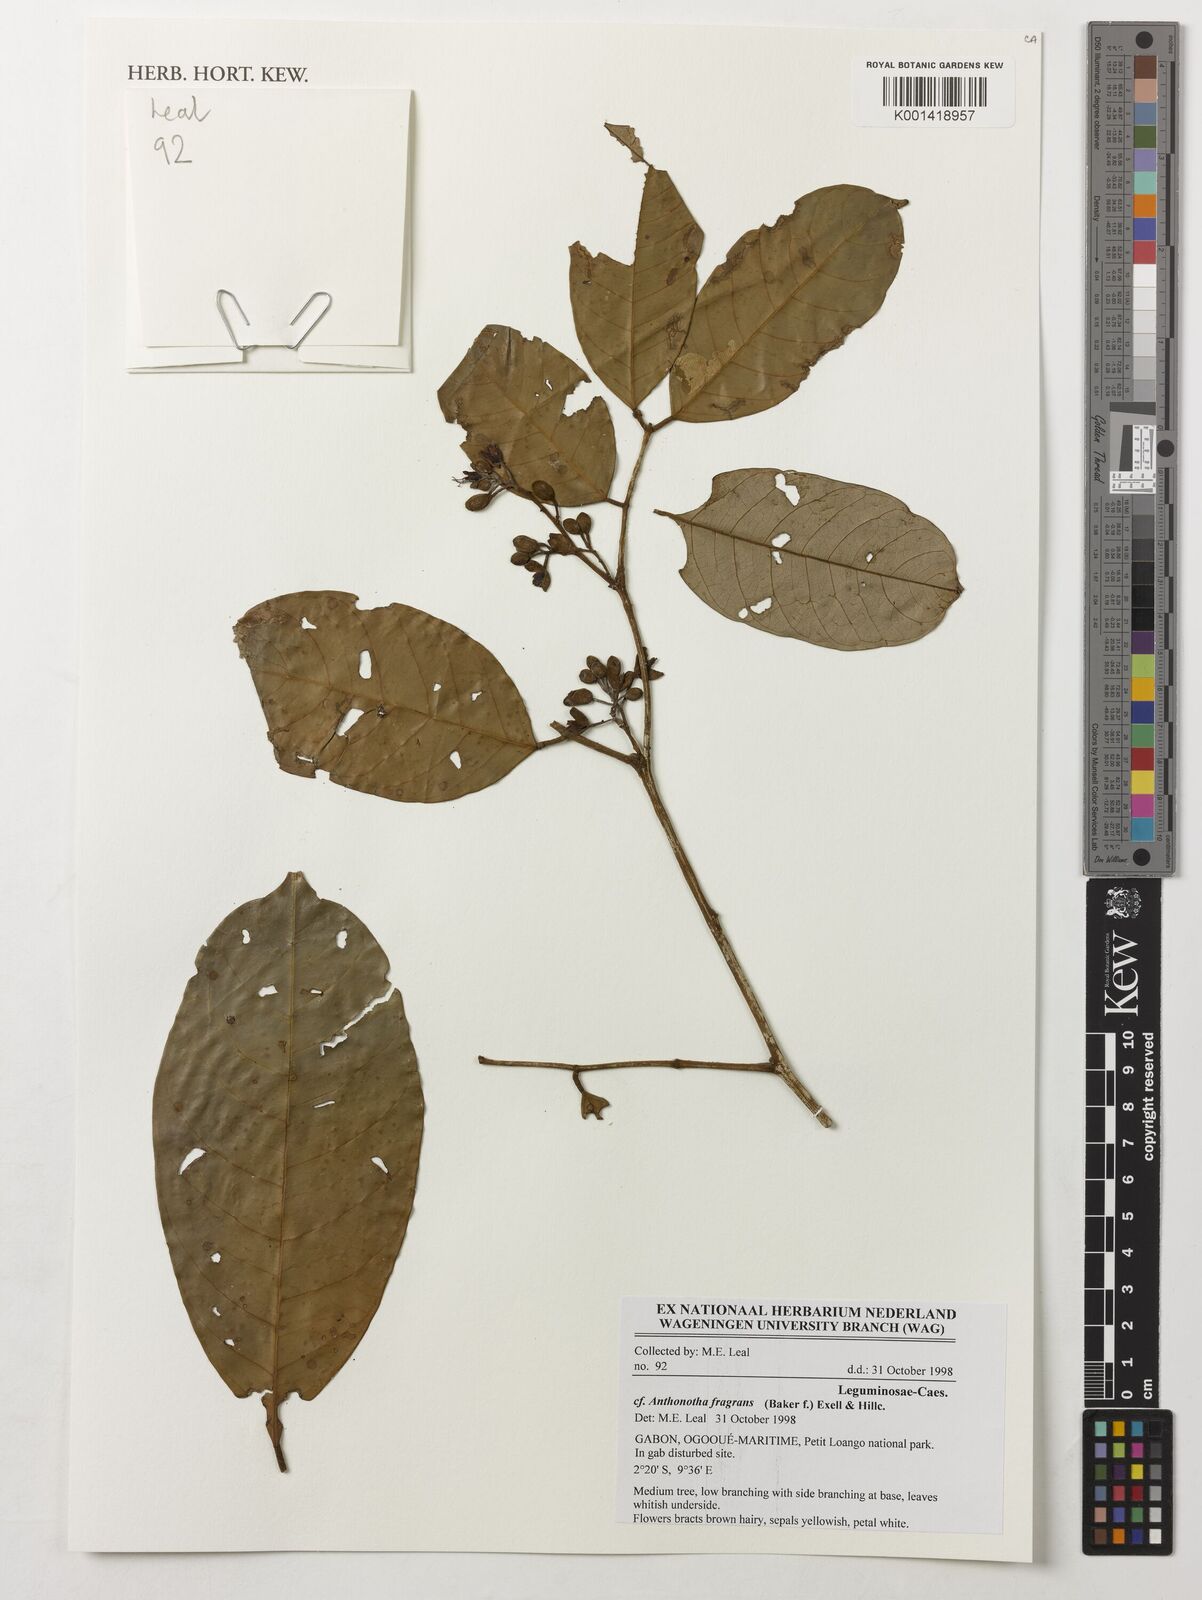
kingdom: Plantae
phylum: Tracheophyta
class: Magnoliopsida
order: Fabales
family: Fabaceae
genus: Anthonotha
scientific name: Anthonotha fragrans
